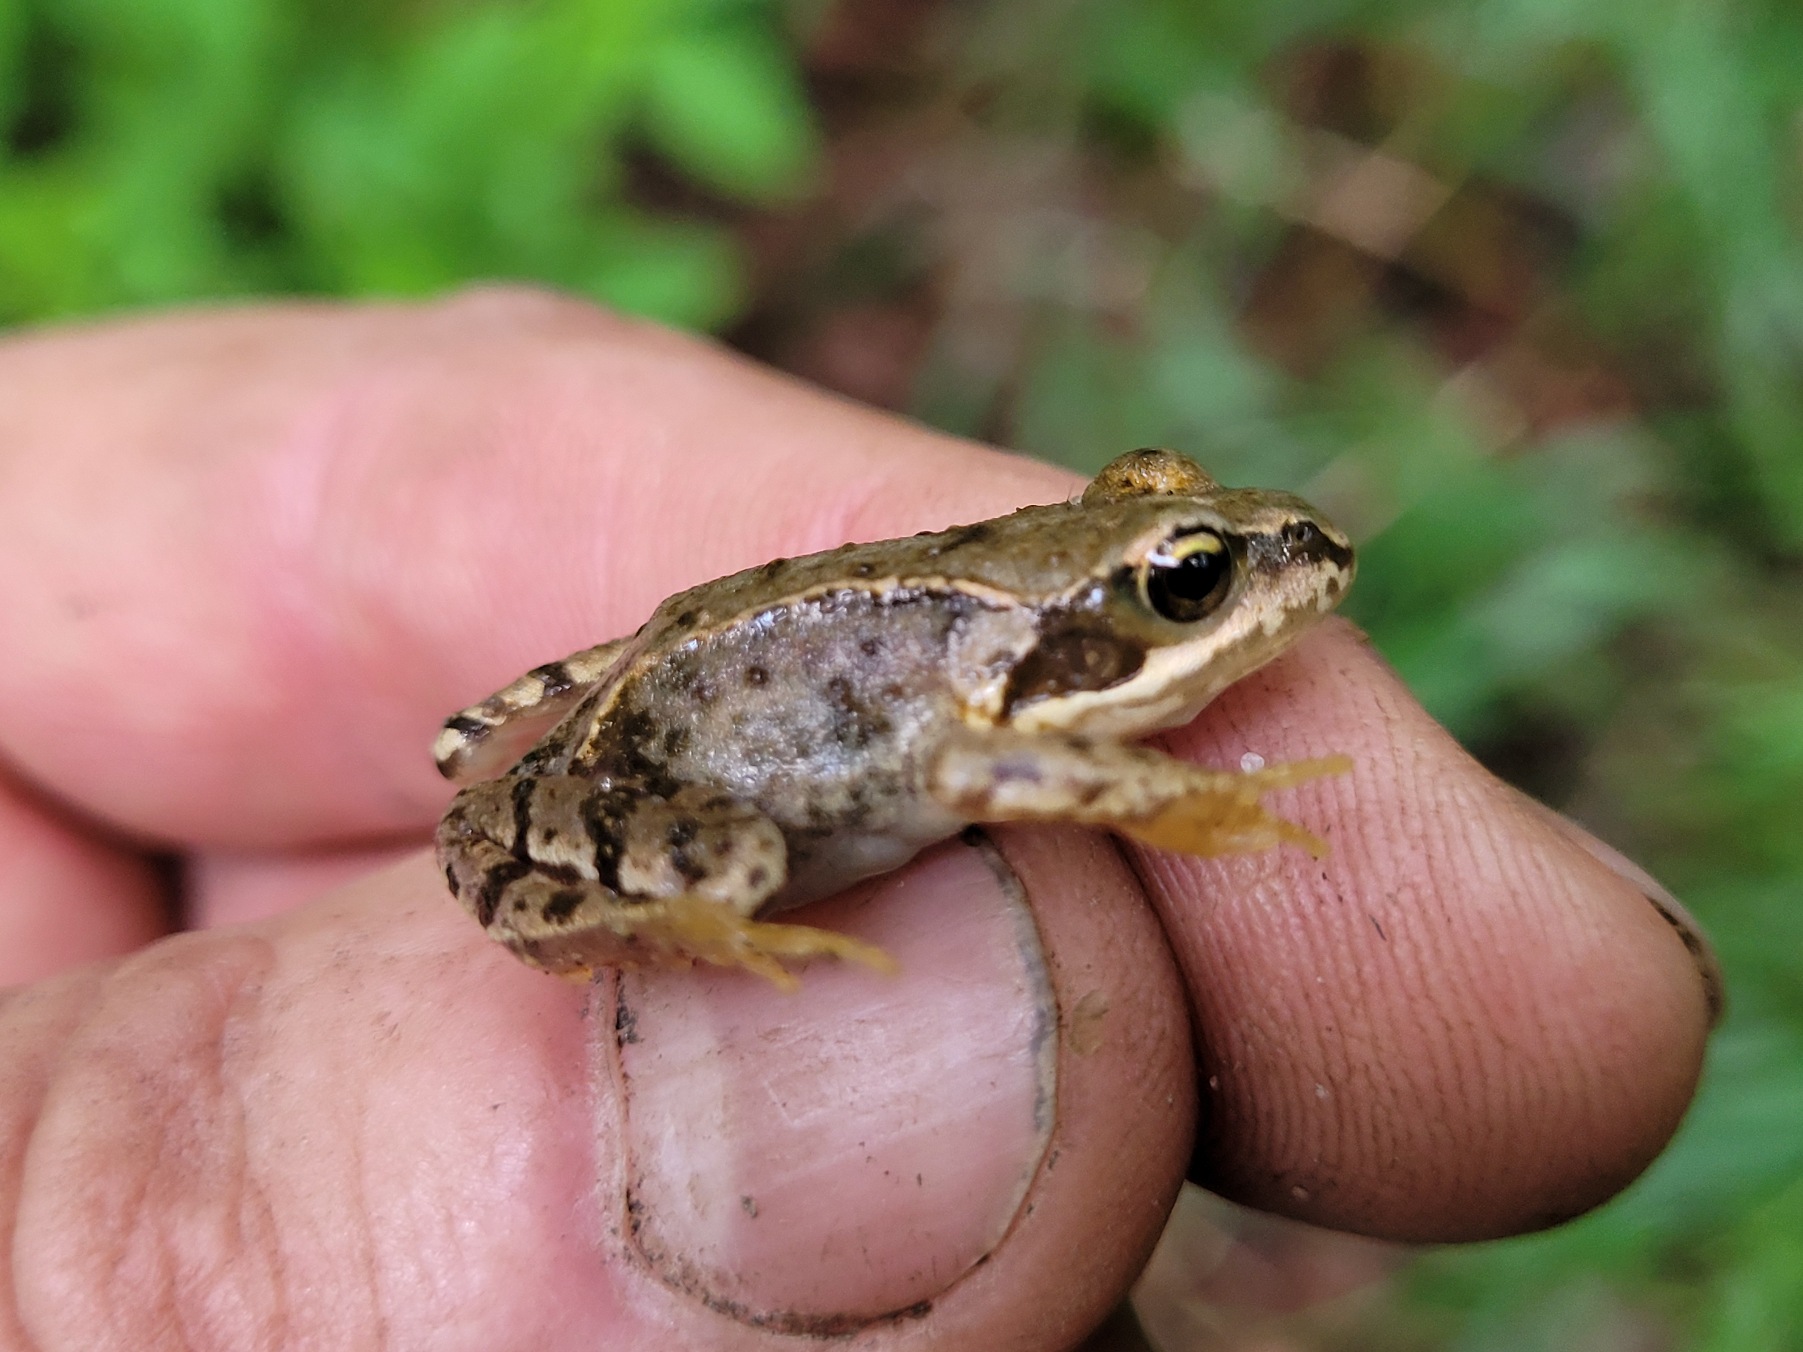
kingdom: Animalia
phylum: Chordata
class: Amphibia
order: Anura
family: Ranidae
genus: Rana
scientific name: Rana temporaria
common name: Butsnudet frø
